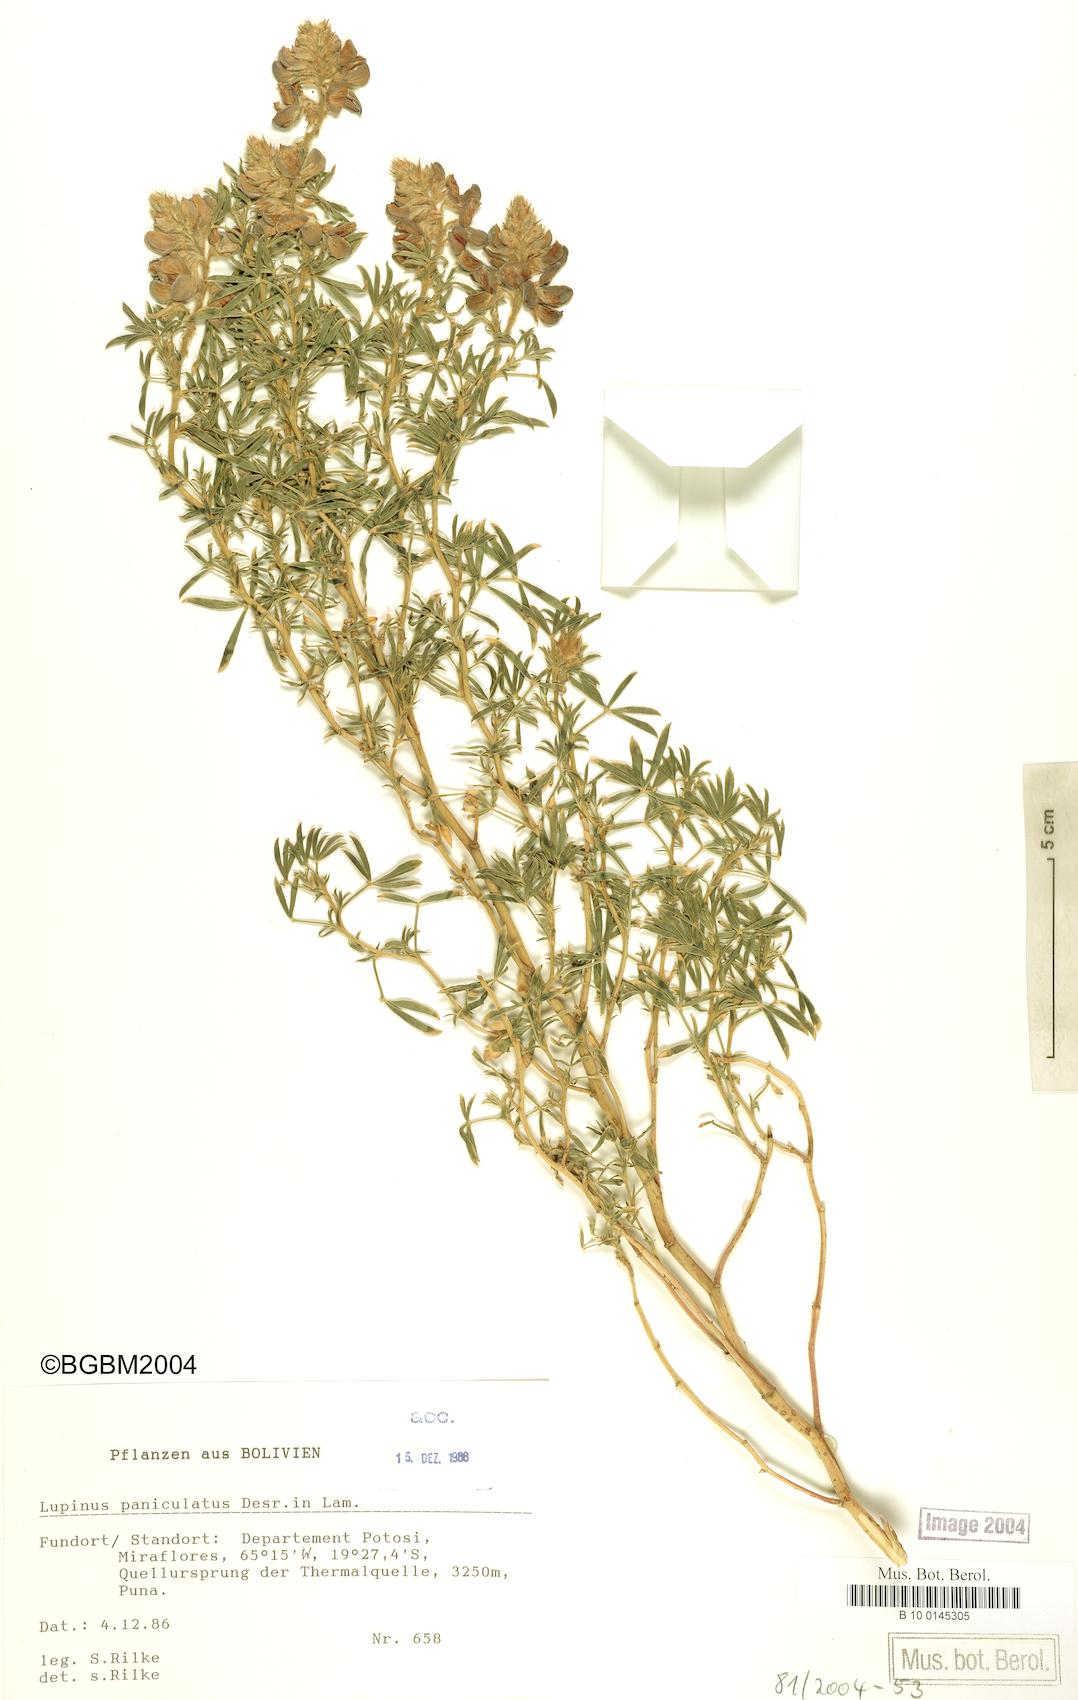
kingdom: Plantae
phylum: Tracheophyta
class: Magnoliopsida
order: Fabales
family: Fabaceae
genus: Lupinus
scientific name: Lupinus paniculatus
